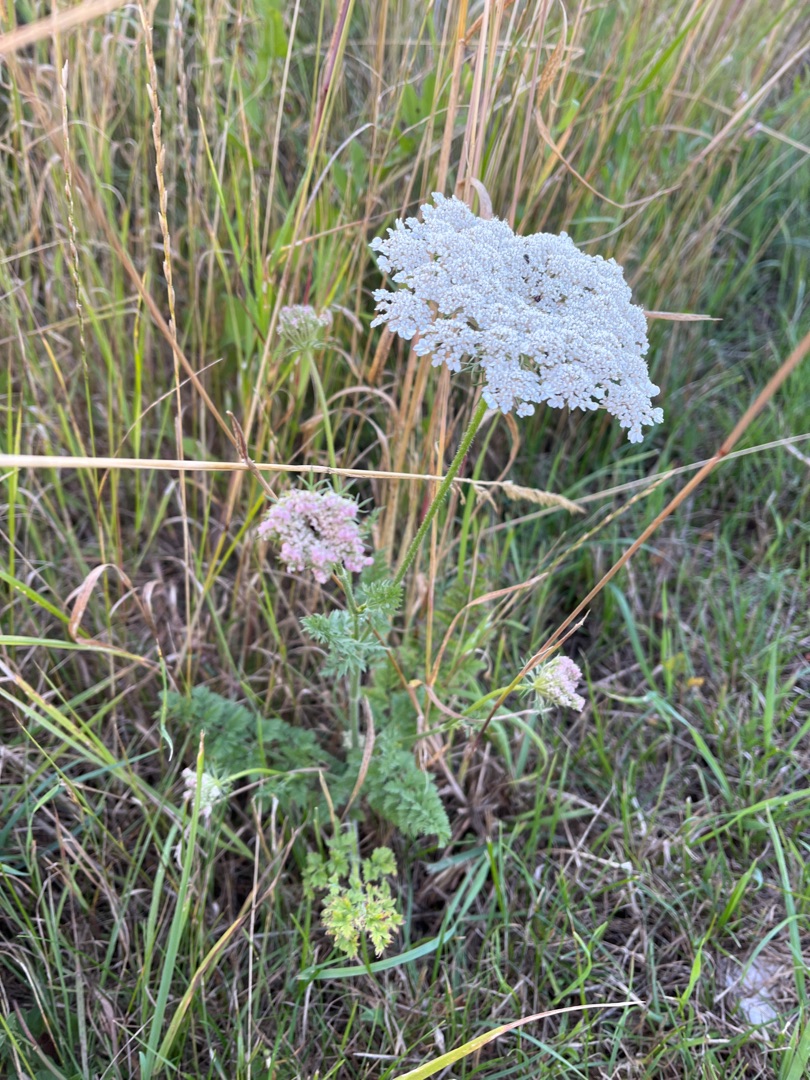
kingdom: Plantae
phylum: Tracheophyta
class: Magnoliopsida
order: Apiales
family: Apiaceae
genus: Daucus
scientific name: Daucus carota
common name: Gulerod
